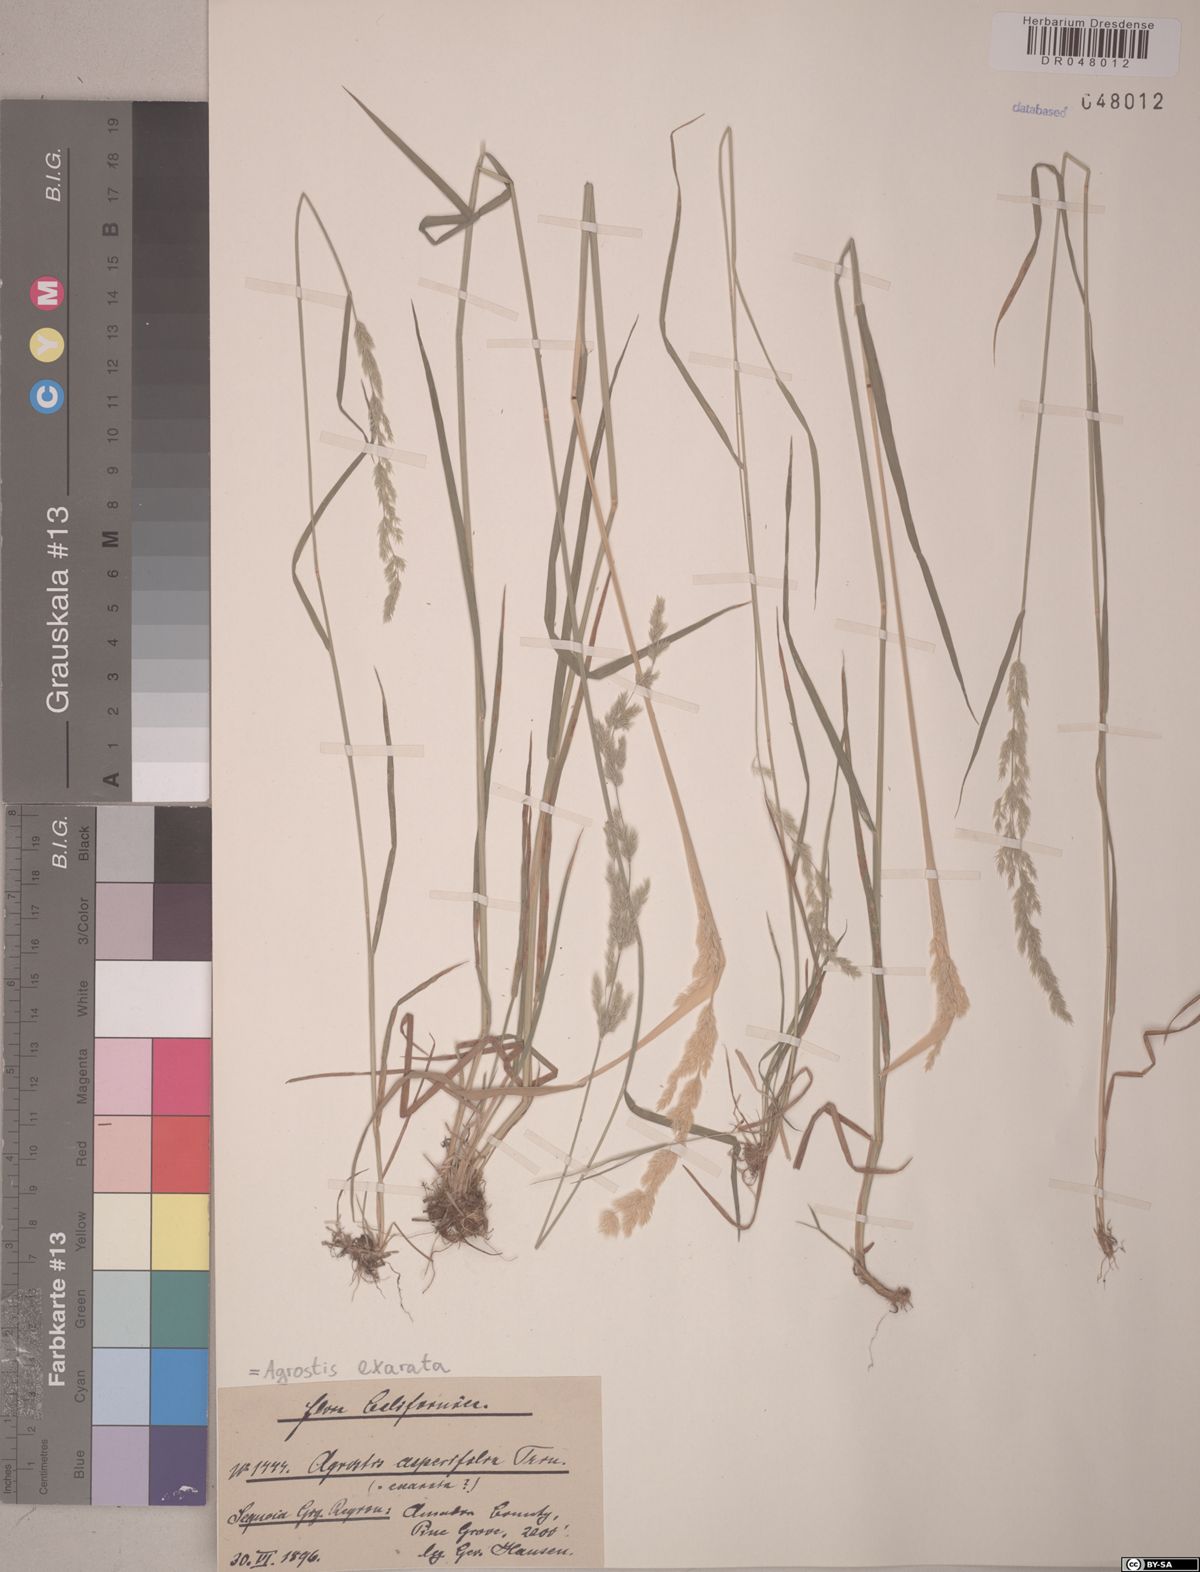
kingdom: Plantae
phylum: Tracheophyta
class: Liliopsida
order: Poales
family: Poaceae
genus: Agrostis
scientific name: Agrostis exarata
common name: Spike bent
